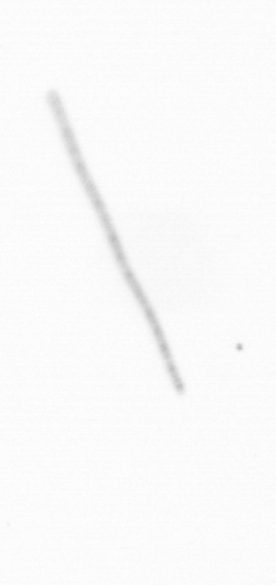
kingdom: Chromista
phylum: Ochrophyta
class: Bacillariophyceae
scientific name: Bacillariophyceae
